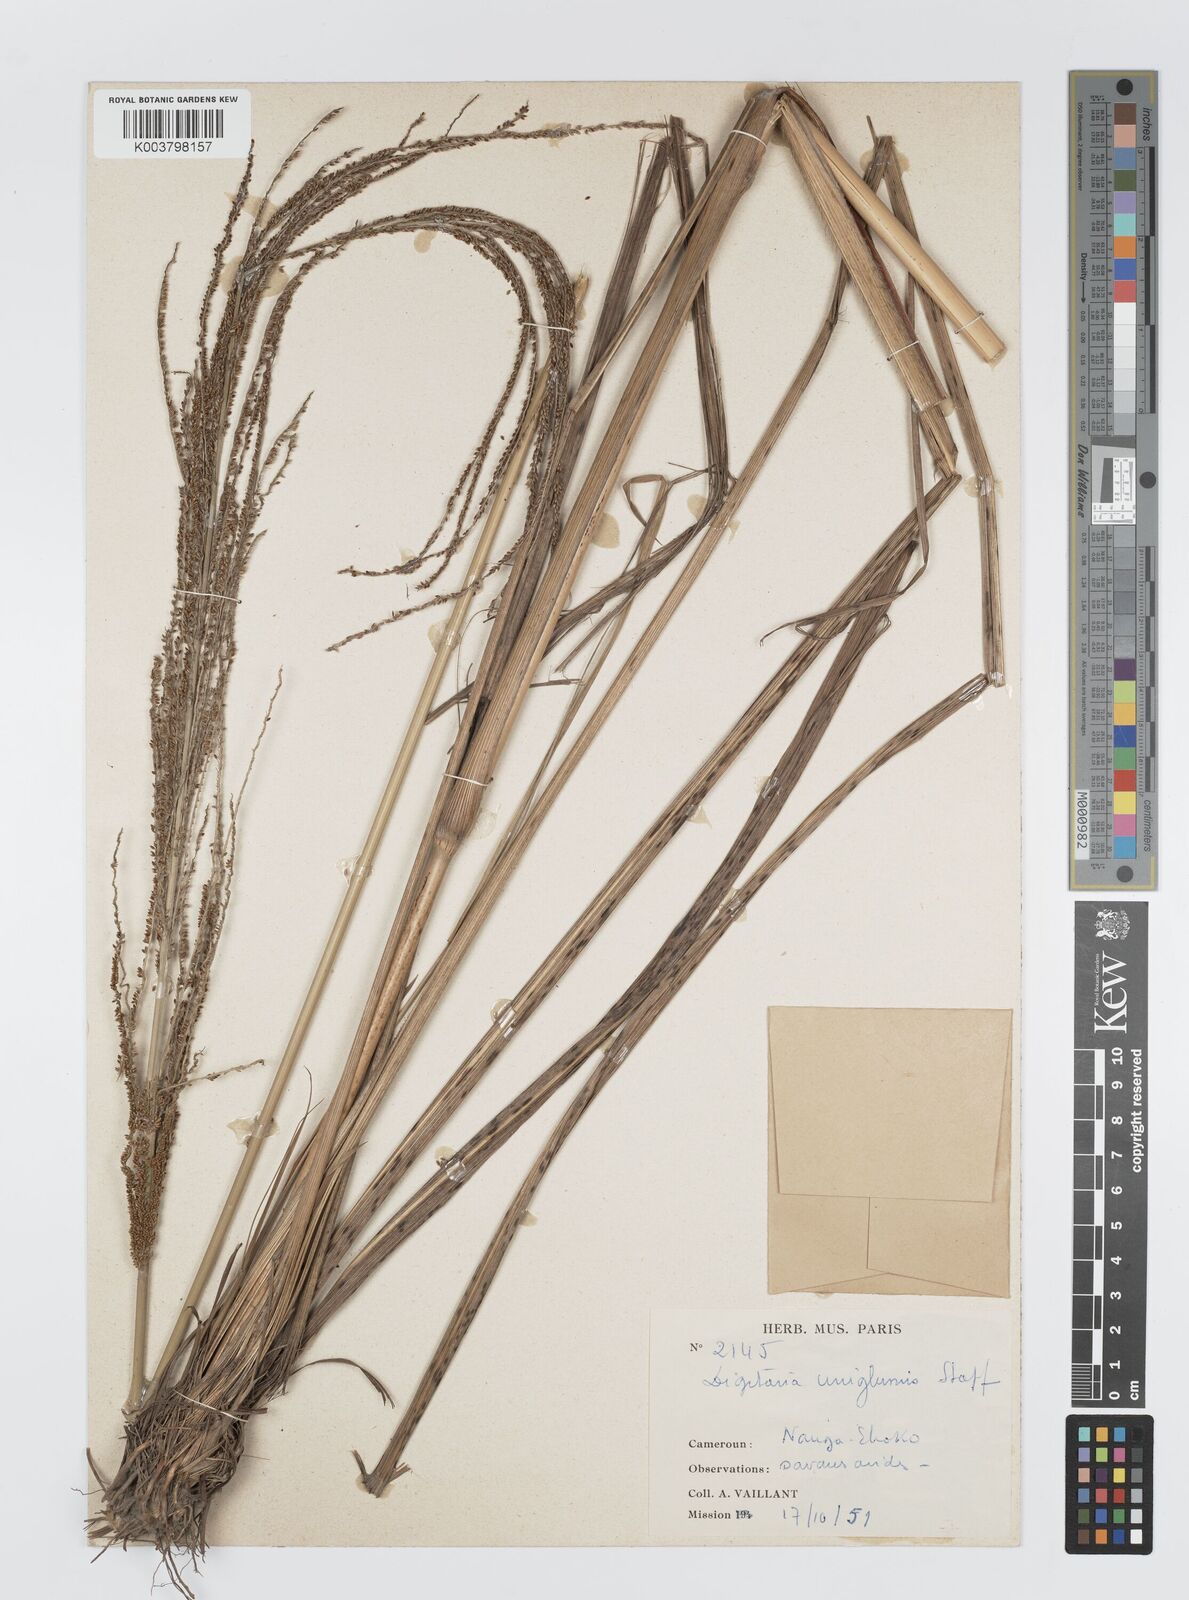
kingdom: Plantae
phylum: Tracheophyta
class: Liliopsida
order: Poales
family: Poaceae
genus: Digitaria
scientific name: Digitaria diagonalis
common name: Brown-seed finger grass
